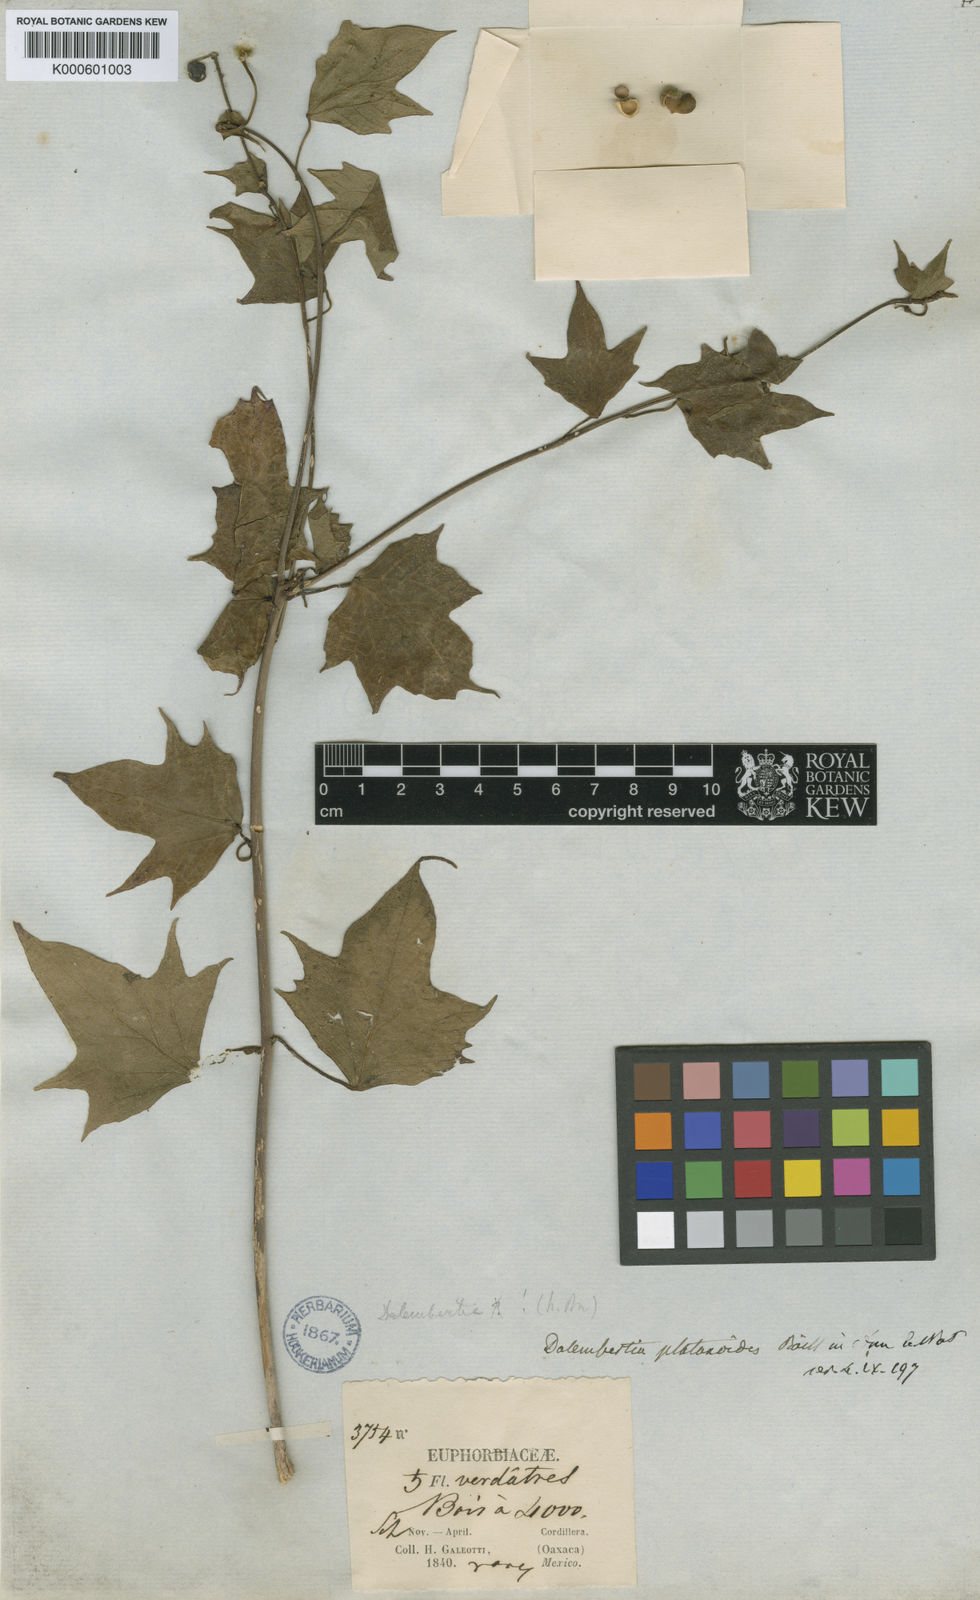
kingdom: Plantae
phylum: Tracheophyta
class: Magnoliopsida
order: Malpighiales
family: Euphorbiaceae
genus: Dalembertia
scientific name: Dalembertia platanoides
